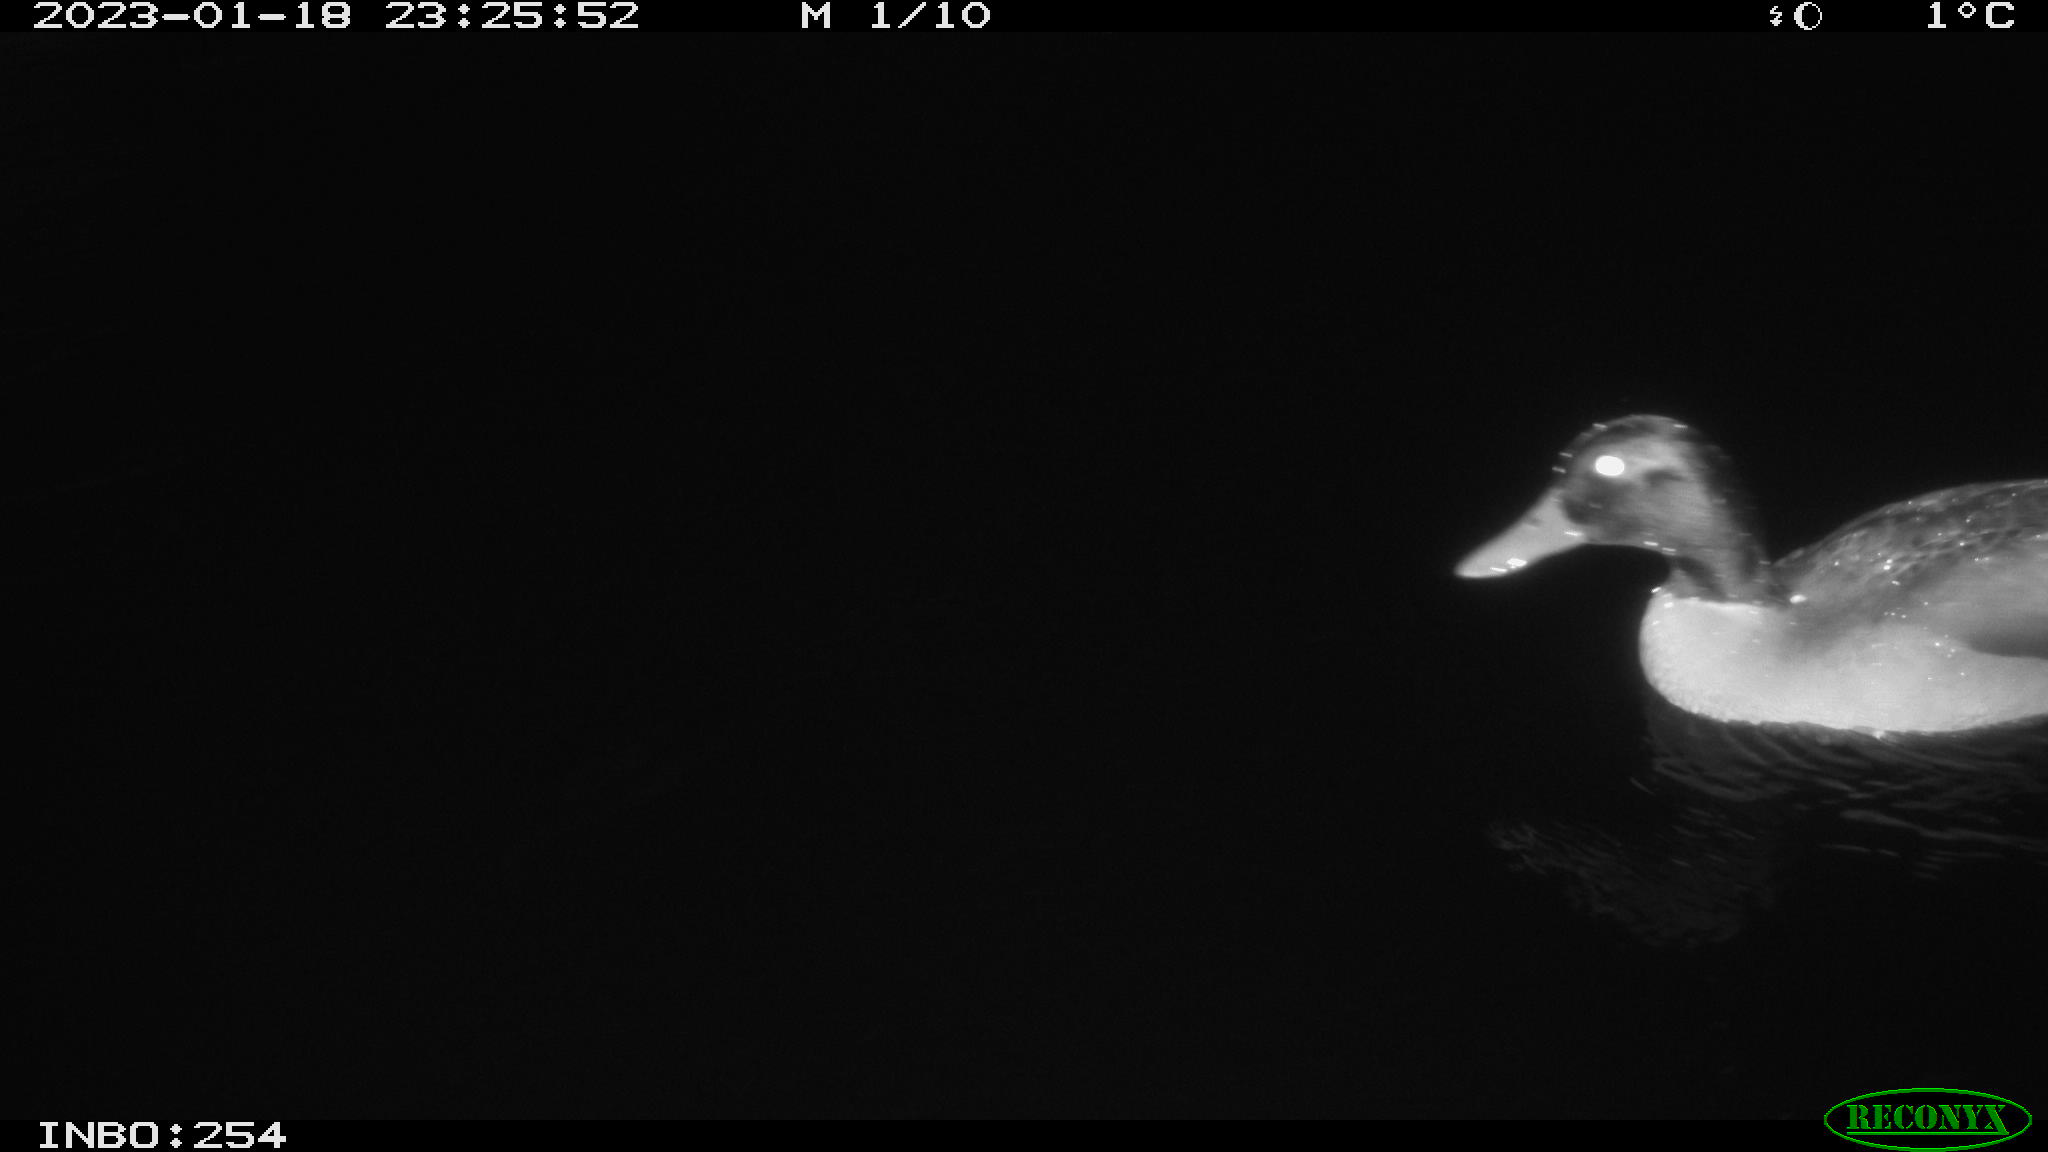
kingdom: Animalia
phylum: Chordata
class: Aves
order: Anseriformes
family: Anatidae
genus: Anas
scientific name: Anas
